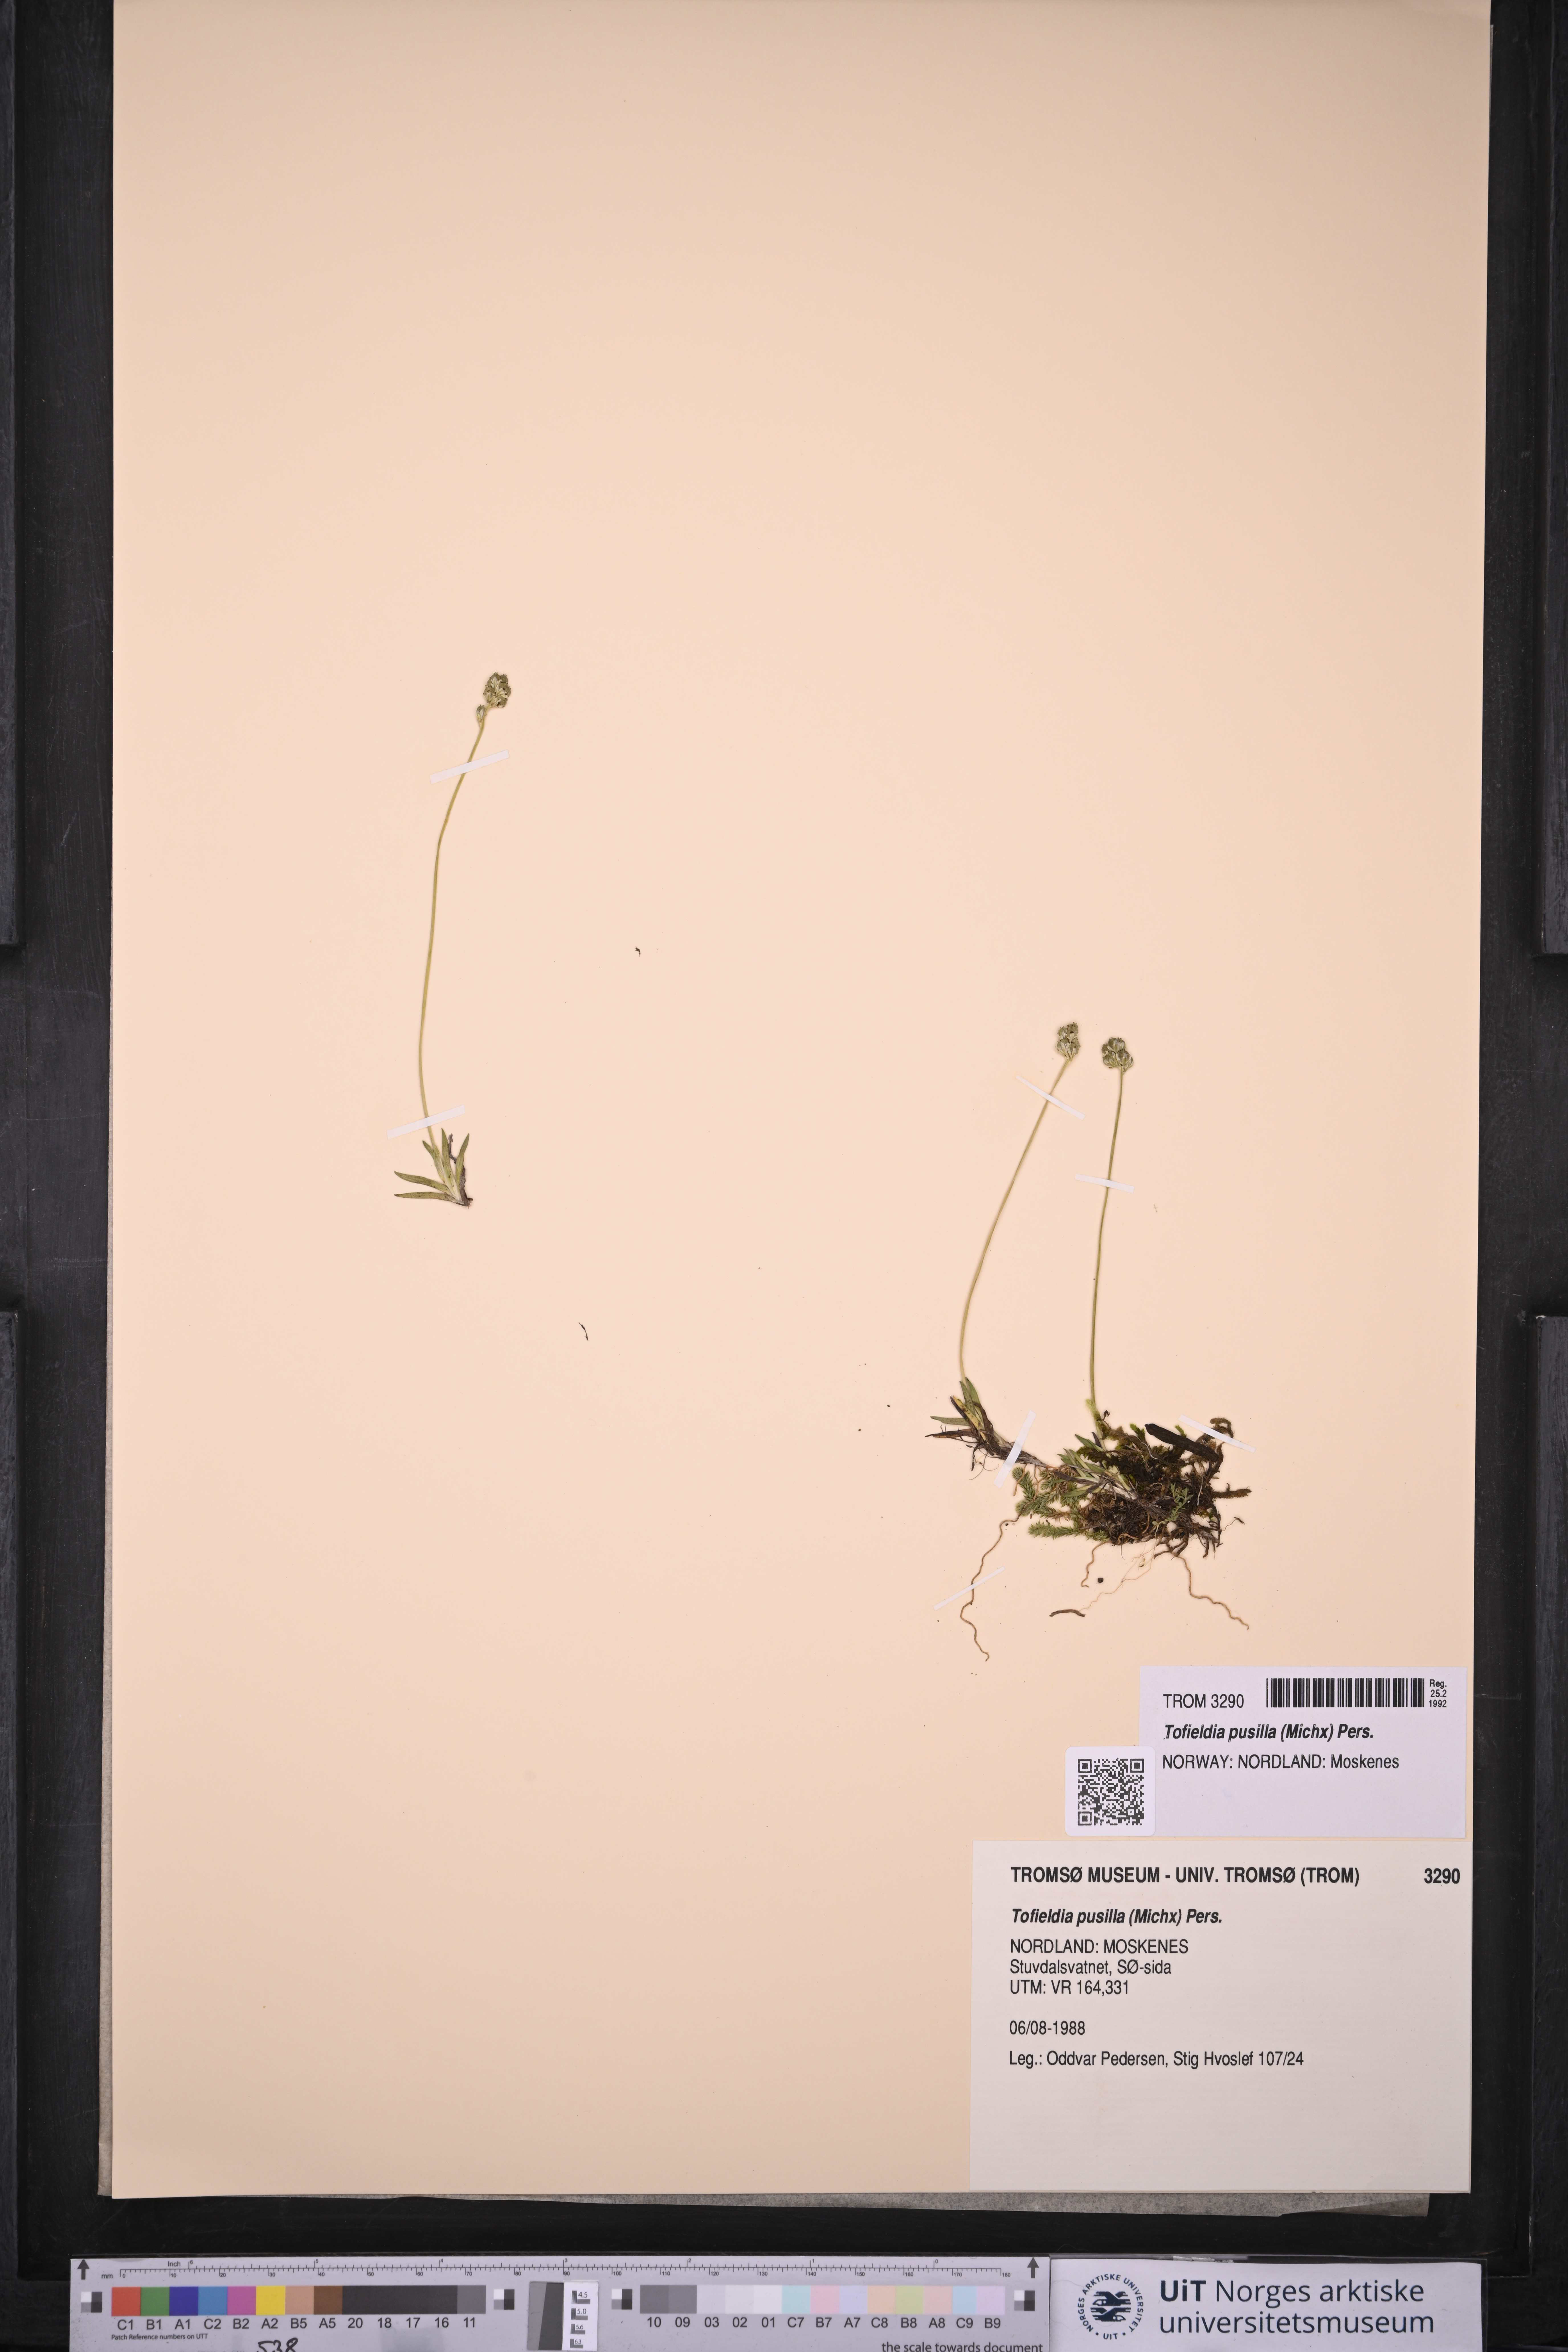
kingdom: Plantae
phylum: Tracheophyta
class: Liliopsida
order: Alismatales
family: Tofieldiaceae
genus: Tofieldia
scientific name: Tofieldia pusilla
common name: Scottish false asphodel
